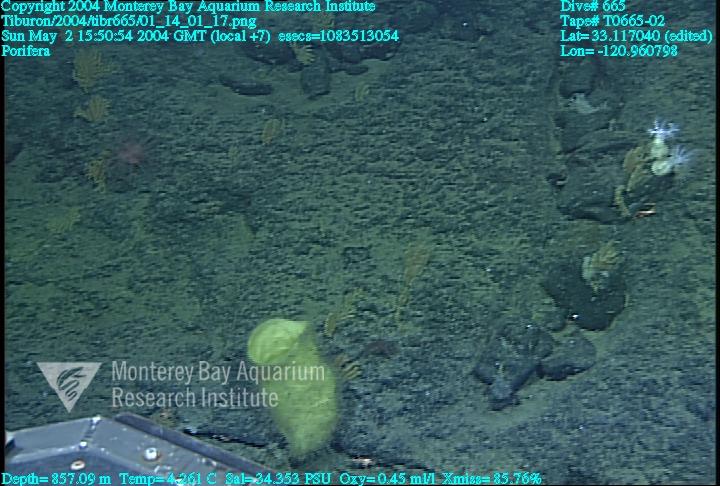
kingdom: Animalia
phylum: Porifera
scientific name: Porifera
